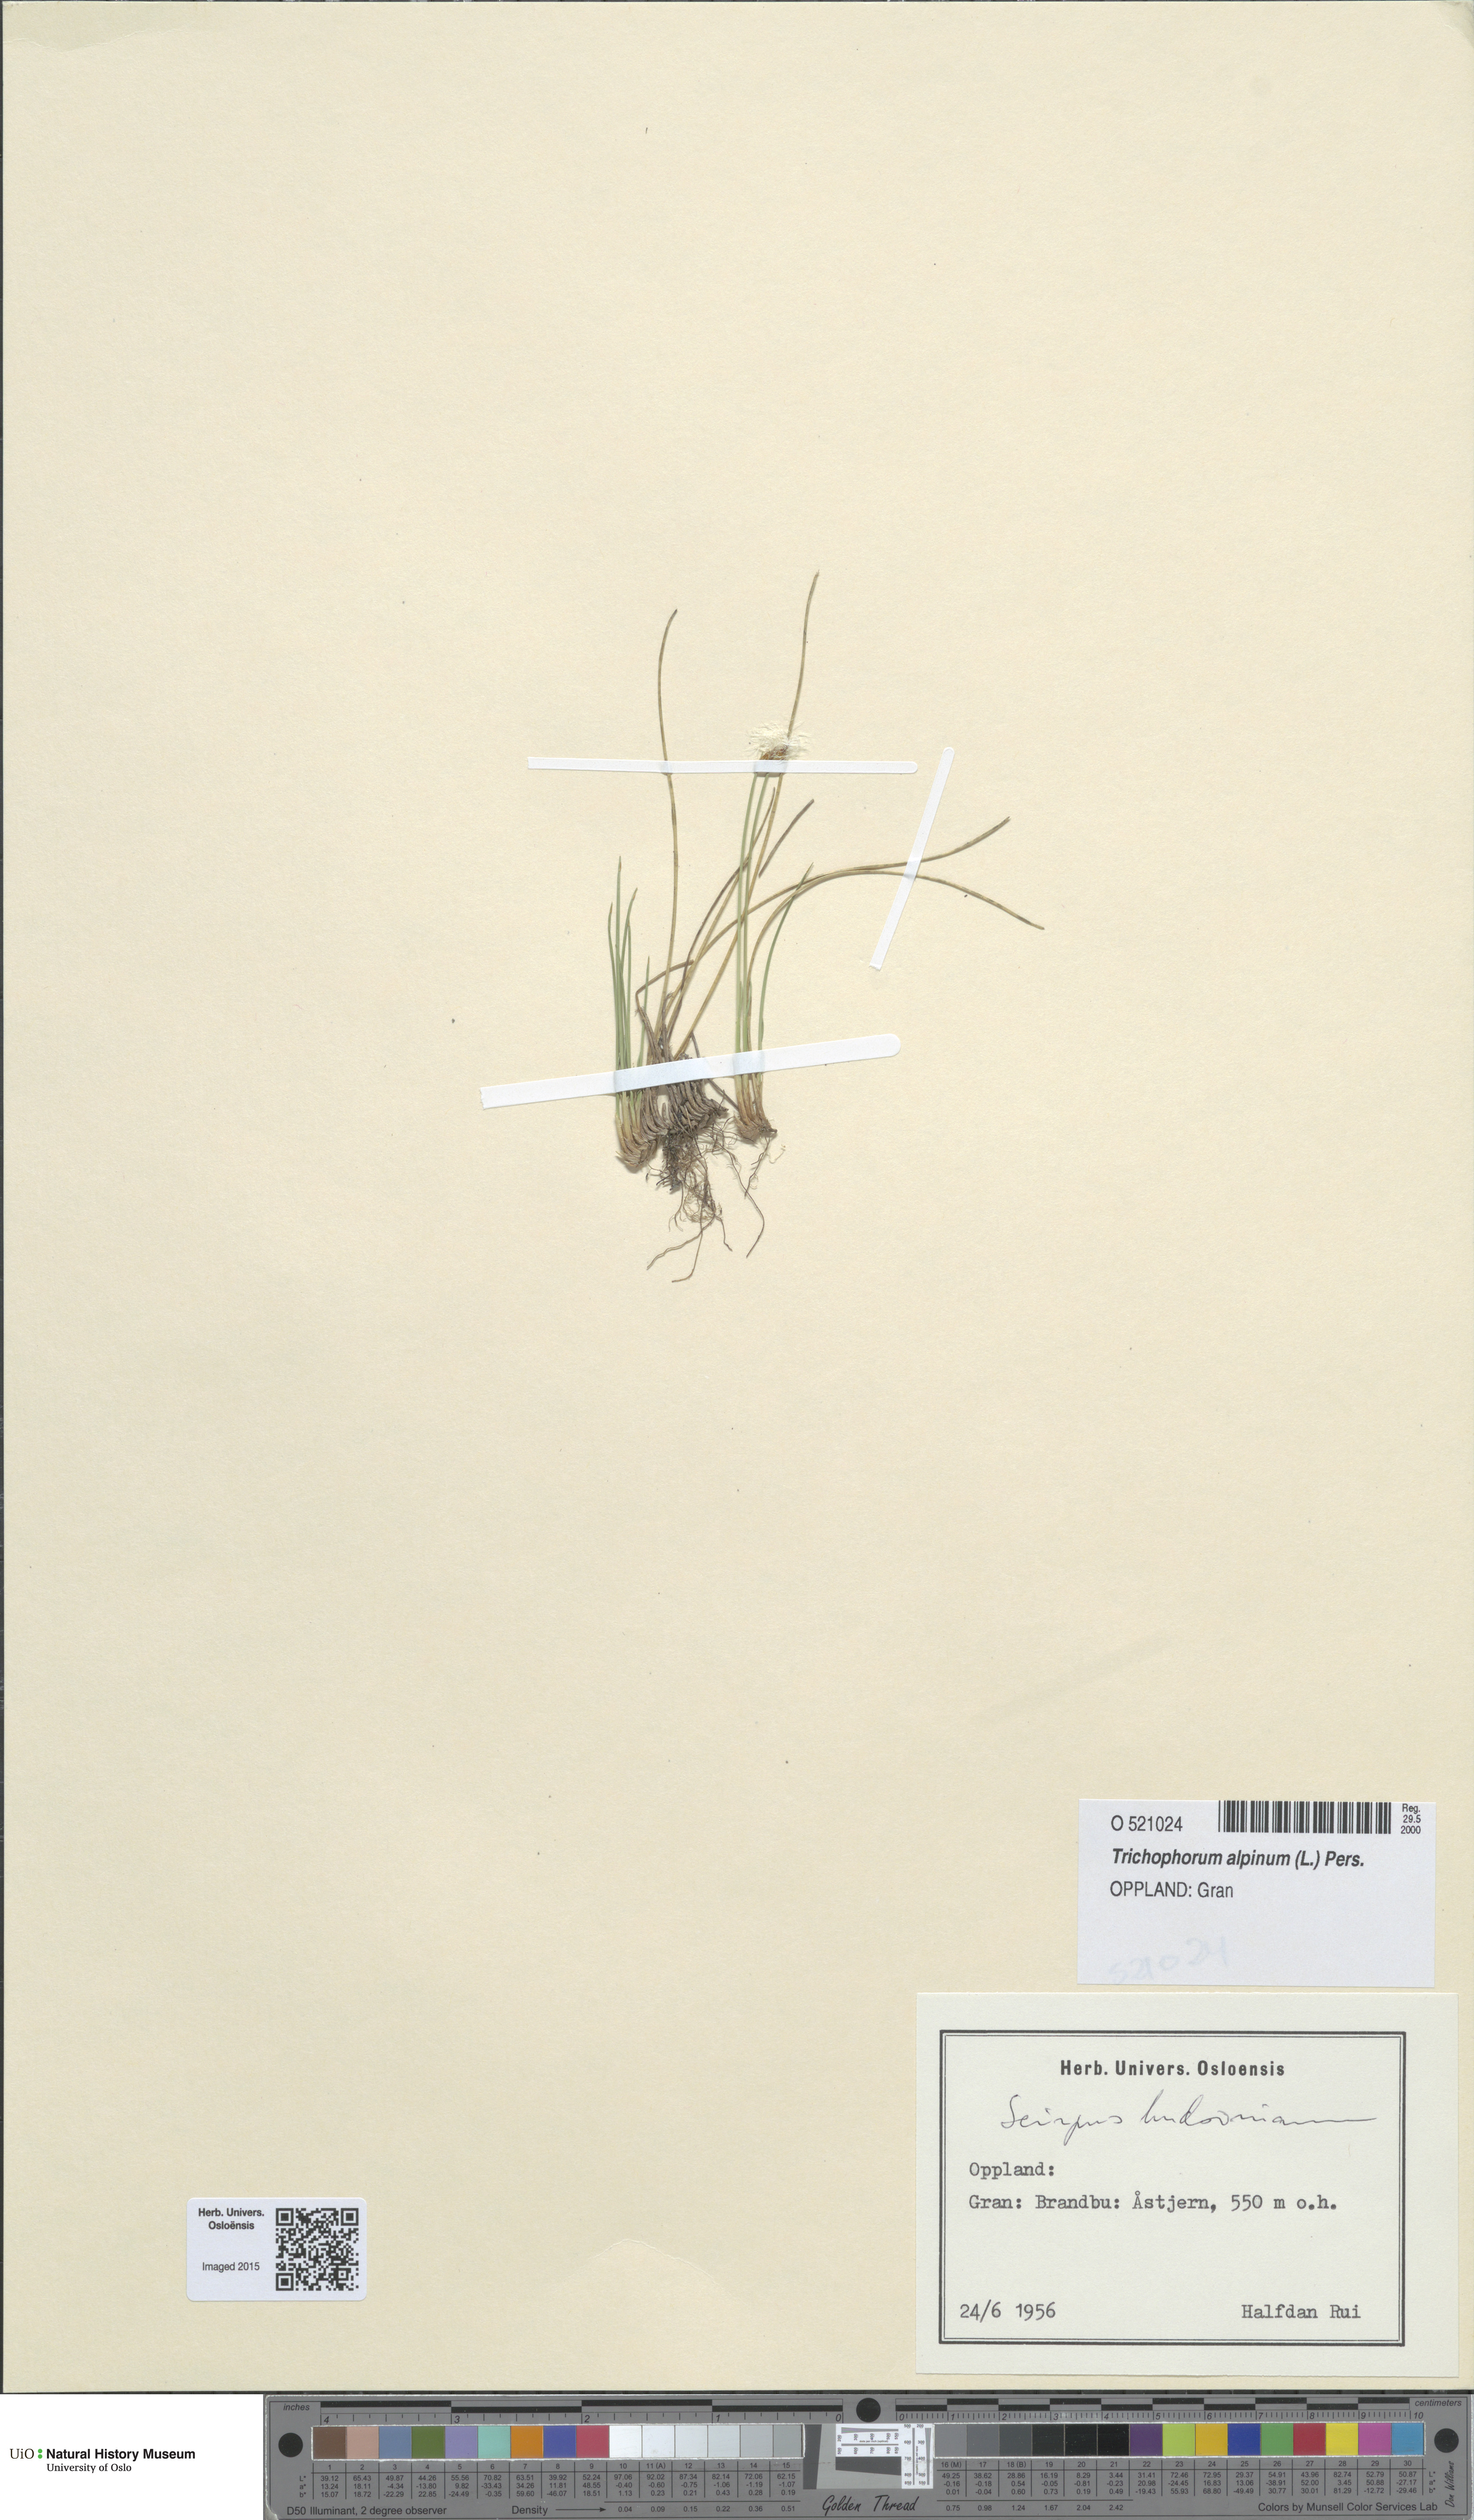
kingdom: Plantae
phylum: Tracheophyta
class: Liliopsida
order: Poales
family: Cyperaceae
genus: Trichophorum
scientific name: Trichophorum alpinum
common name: Alpine bulrush
